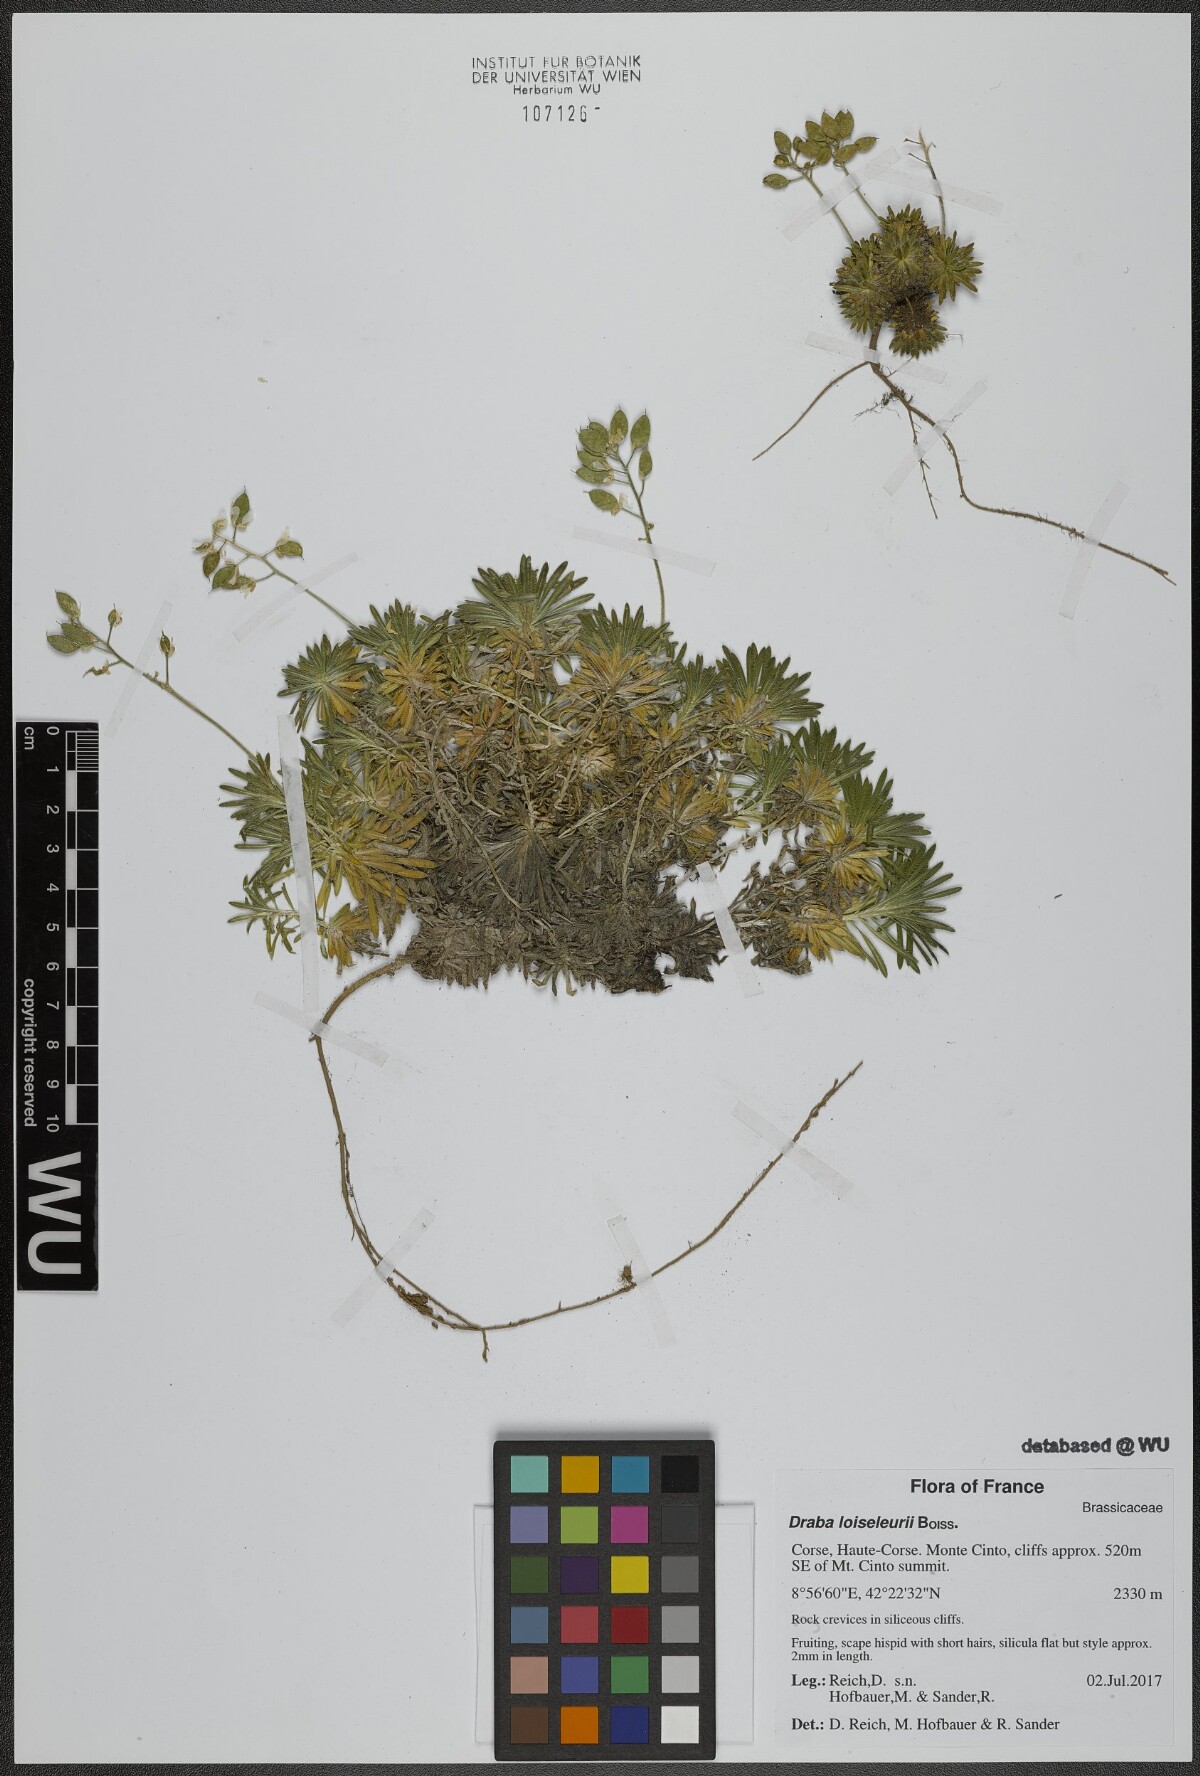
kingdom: Plantae
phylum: Tracheophyta
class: Magnoliopsida
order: Brassicales
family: Brassicaceae
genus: Draba
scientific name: Draba loiseleurii
